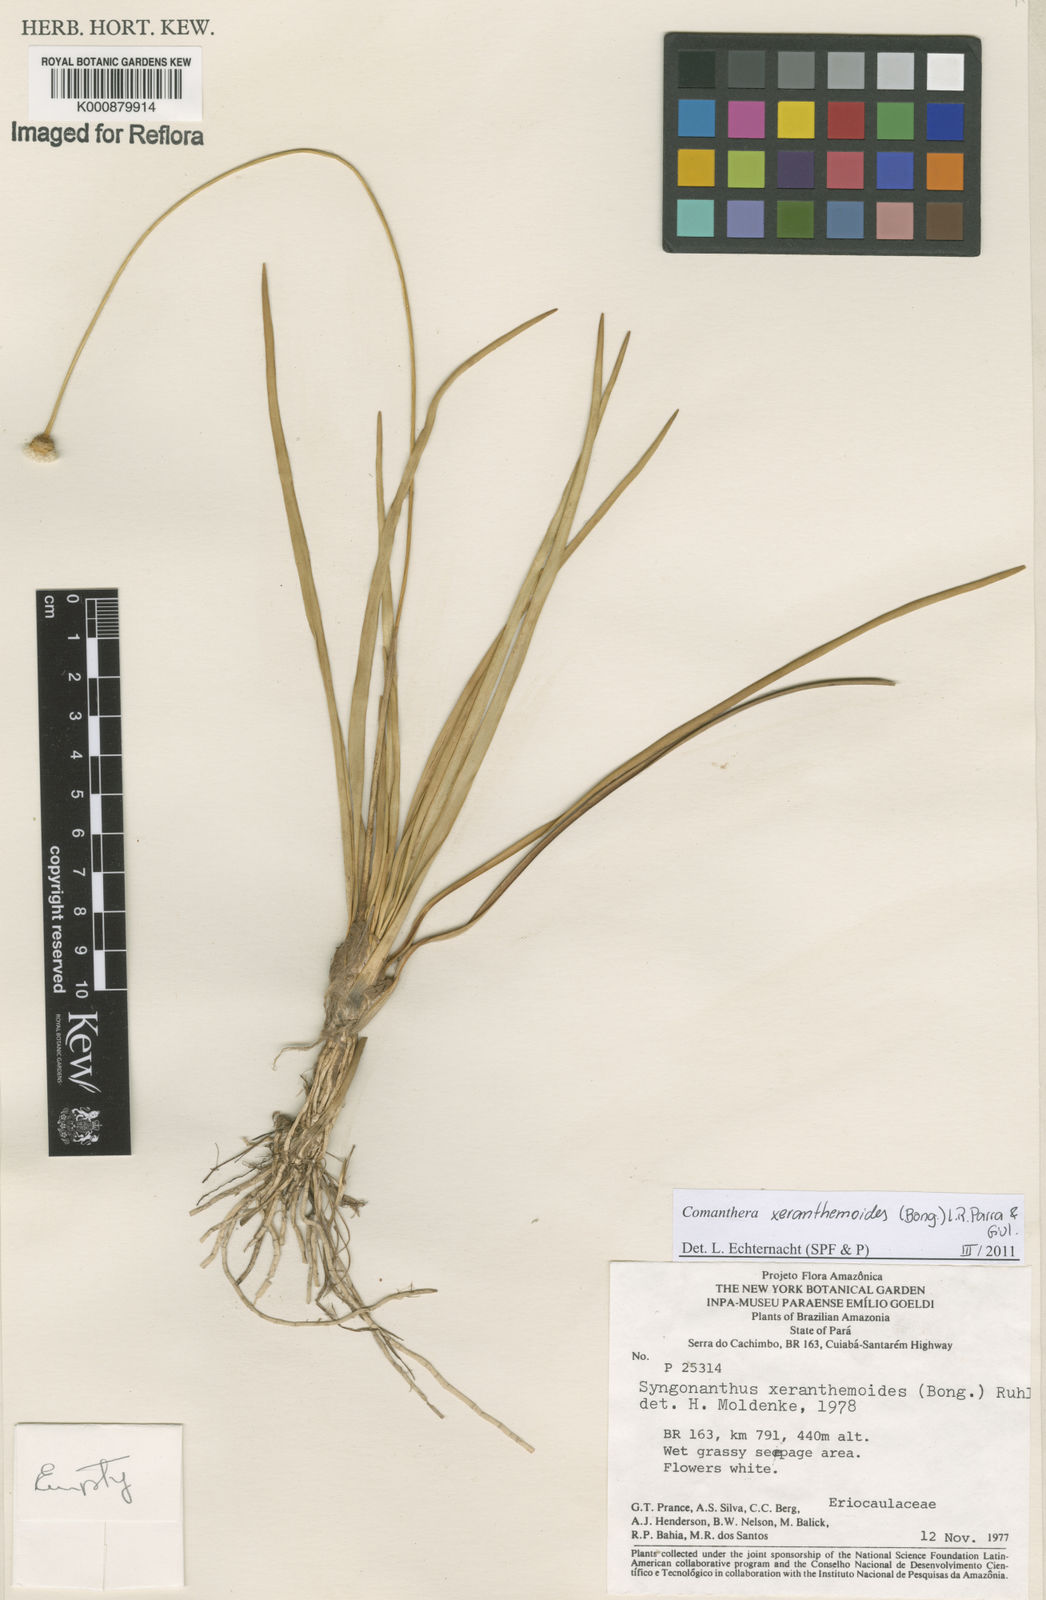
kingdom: Plantae
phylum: Tracheophyta
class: Liliopsida
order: Poales
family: Eriocaulaceae
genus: Comanthera
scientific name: Comanthera xeranthemoides
